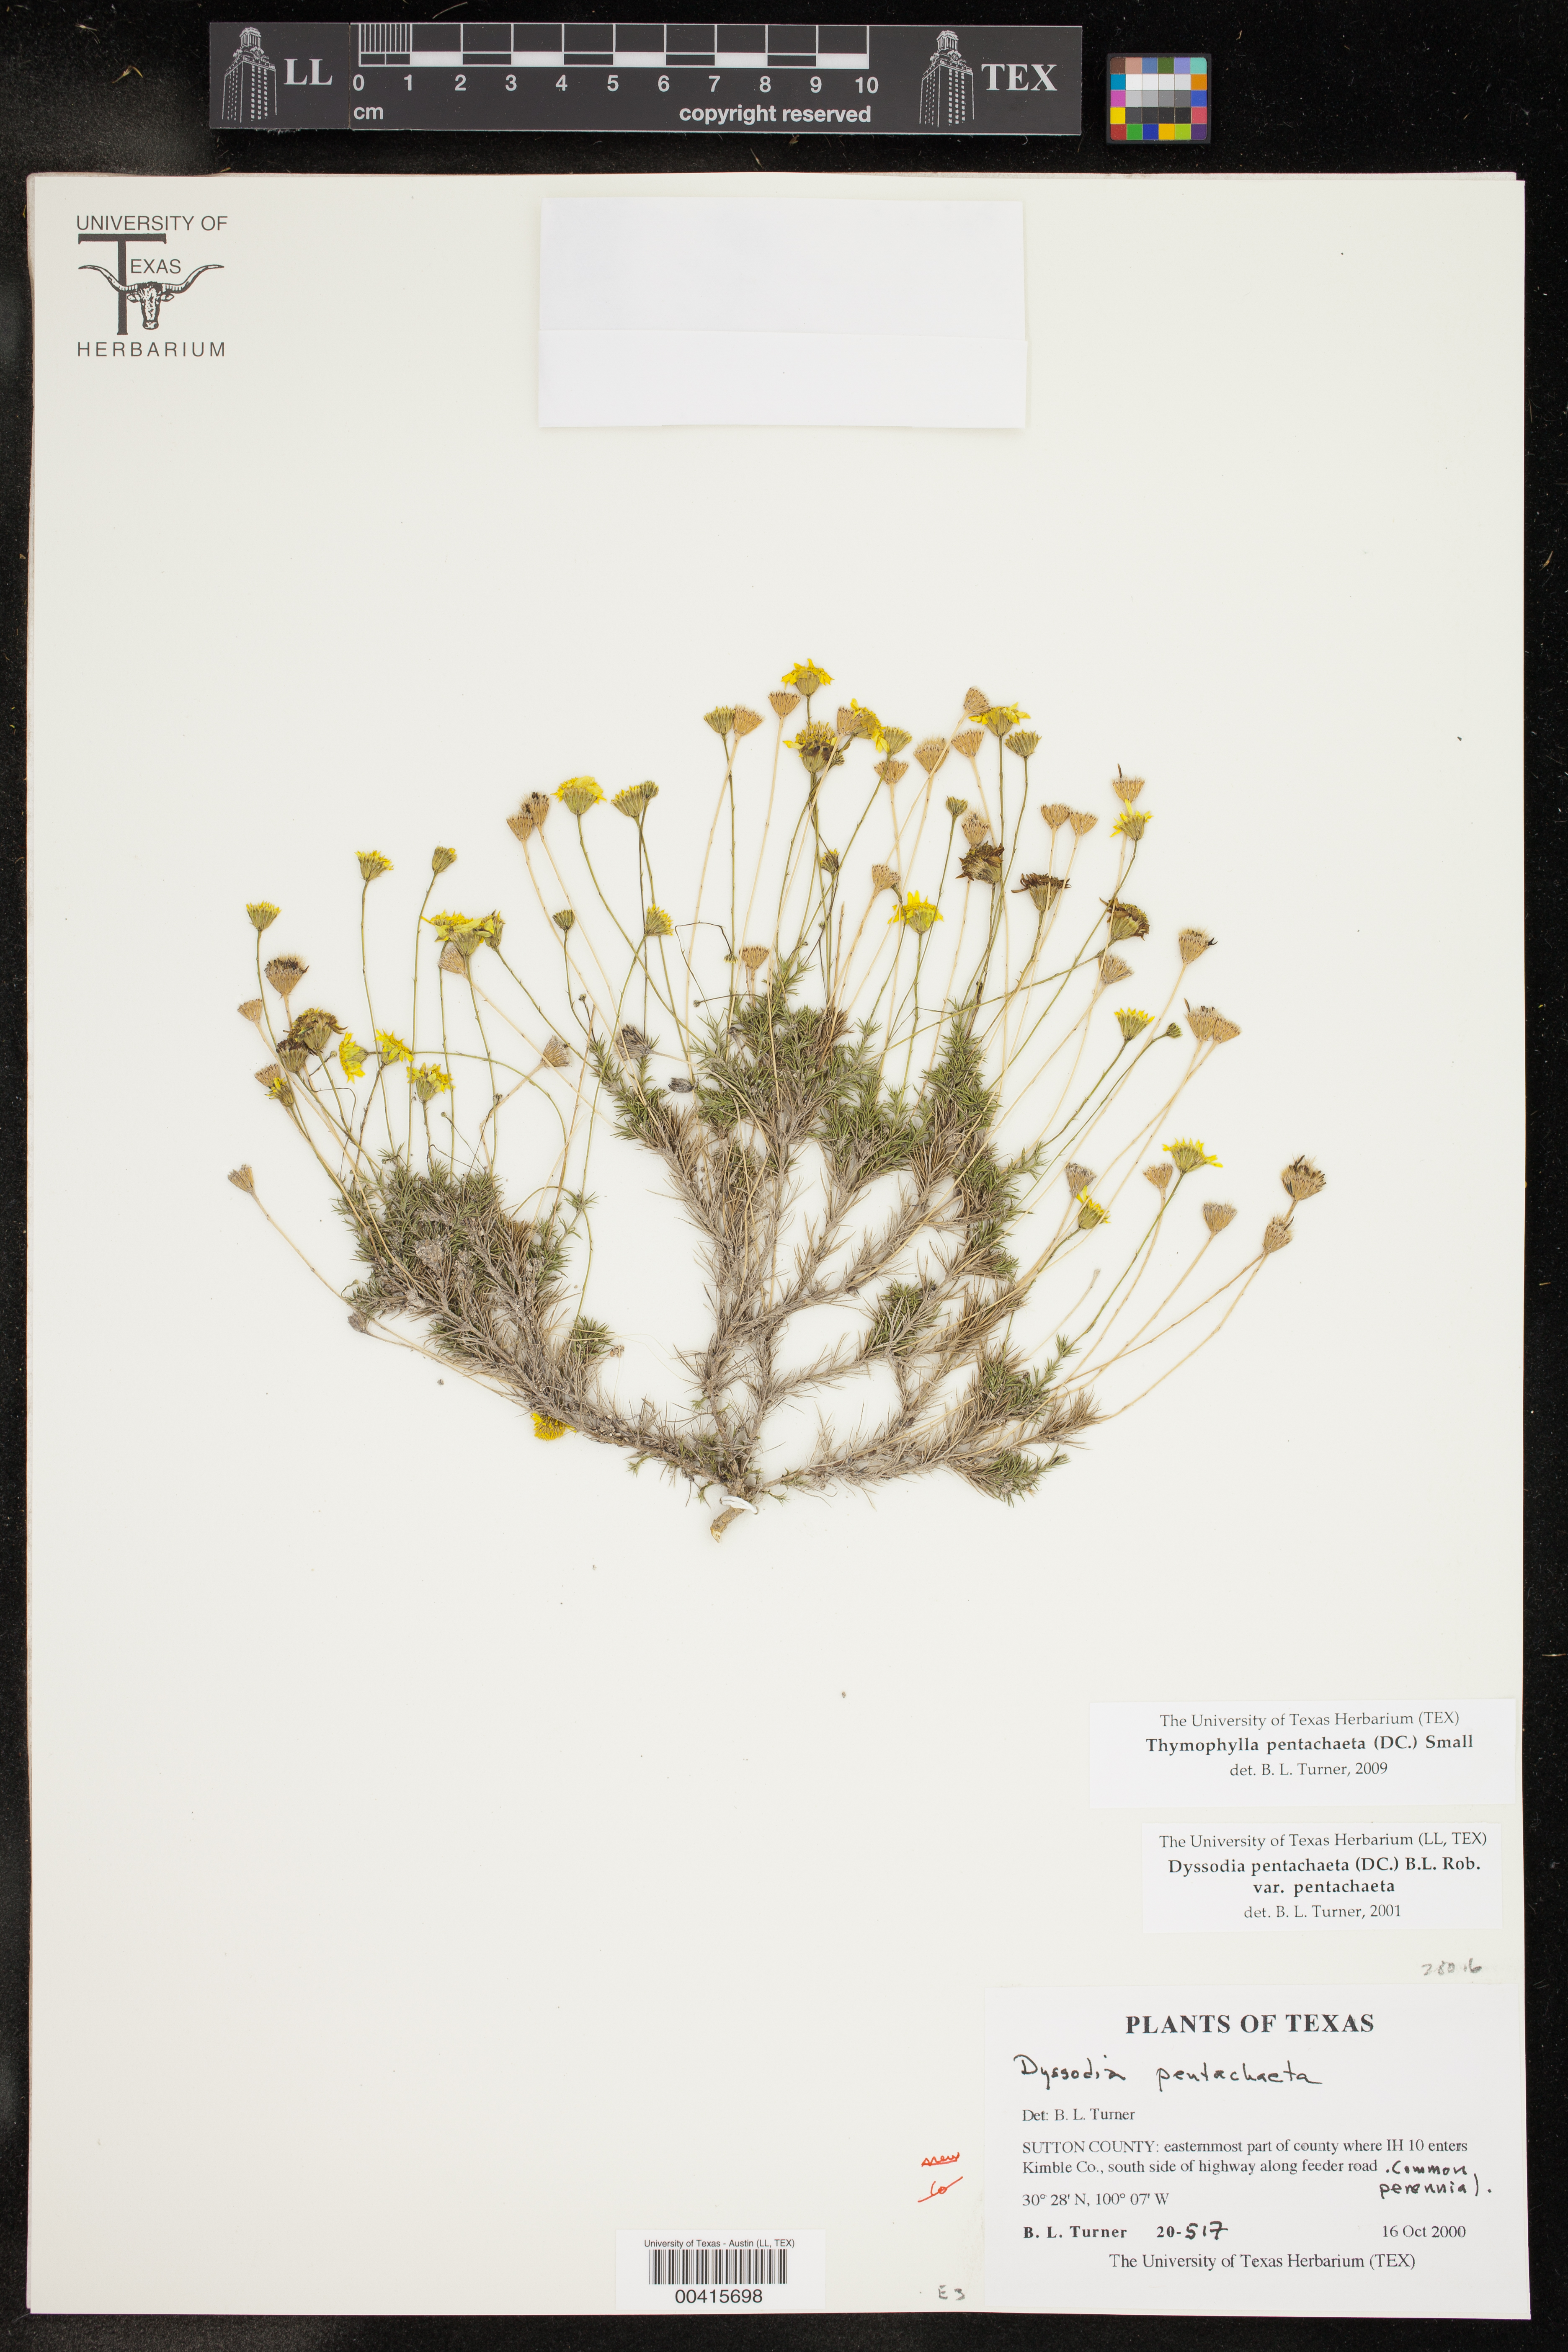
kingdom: Plantae
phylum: Tracheophyta
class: Magnoliopsida
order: Asterales
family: Asteraceae
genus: Thymophylla
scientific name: Thymophylla pentachaeta
